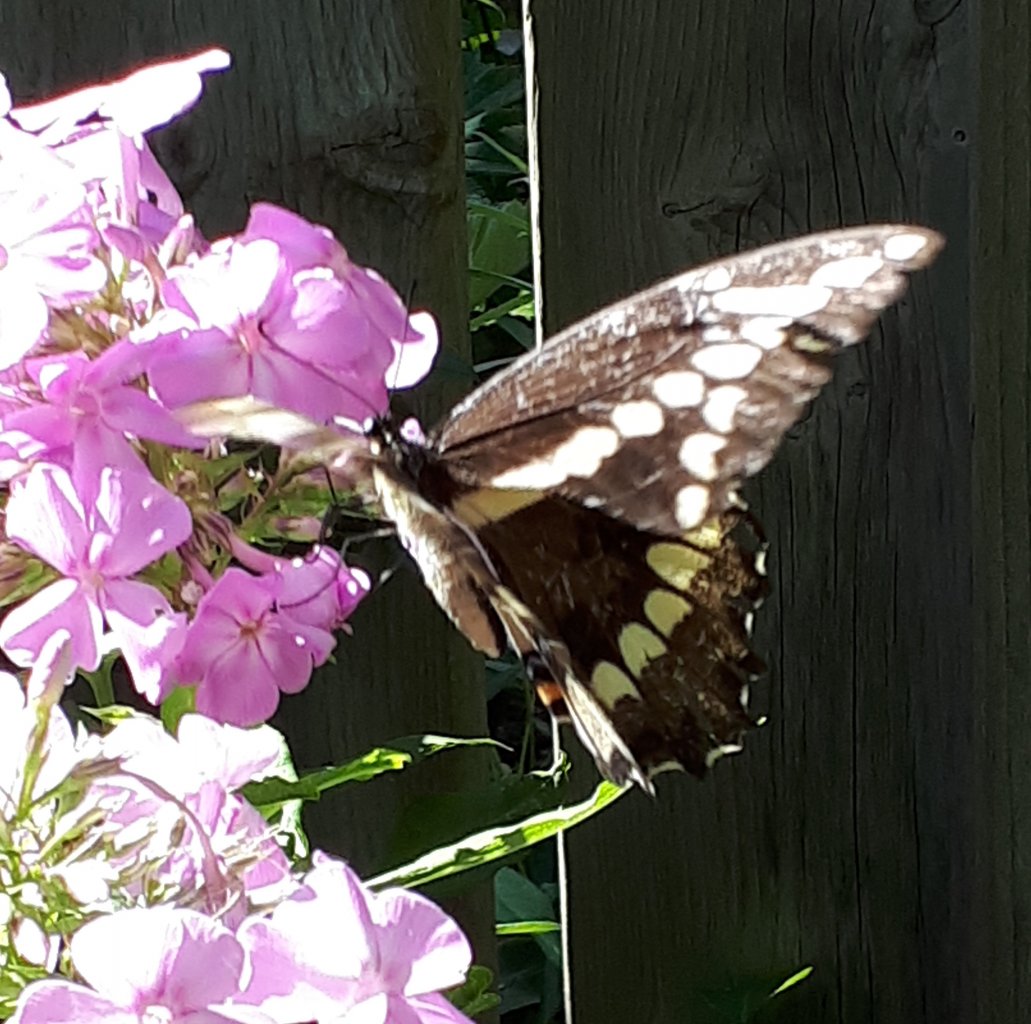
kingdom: Animalia
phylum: Arthropoda
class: Insecta
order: Lepidoptera
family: Papilionidae
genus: Papilio
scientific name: Papilio cresphontes
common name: Eastern Giant Swallowtail
